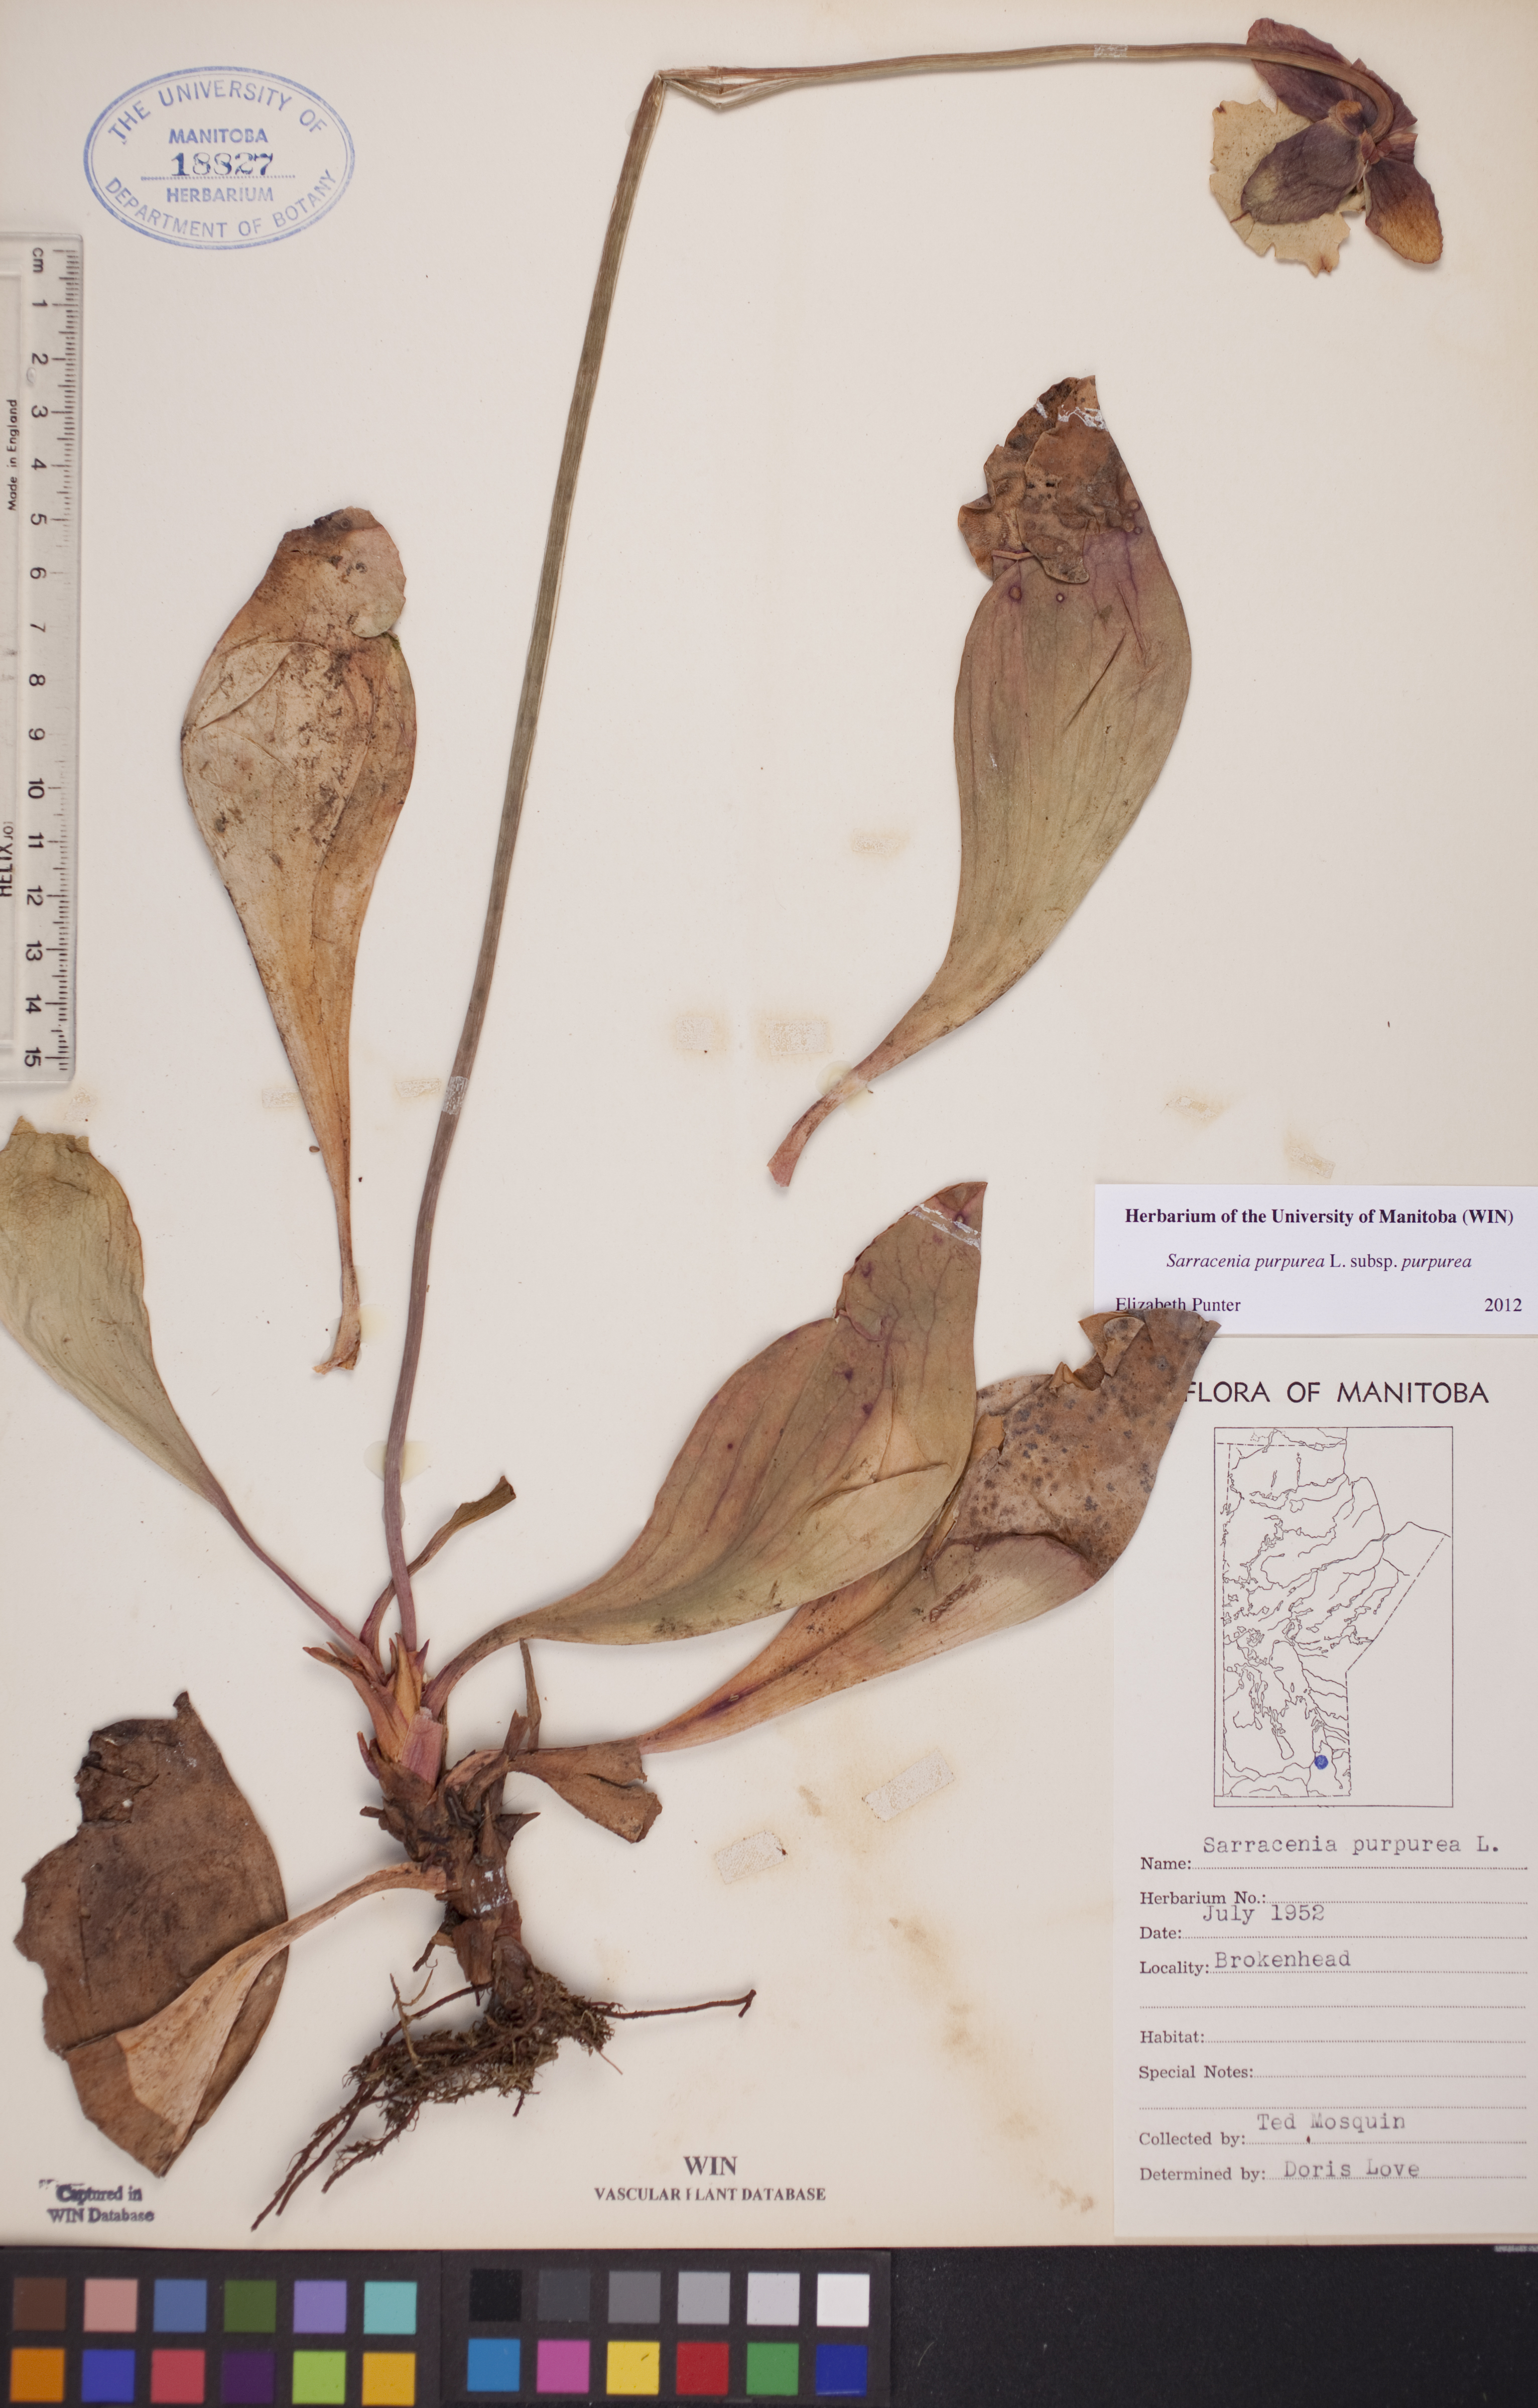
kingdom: Plantae
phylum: Tracheophyta
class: Magnoliopsida
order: Ericales
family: Sarraceniaceae
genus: Sarracenia
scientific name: Sarracenia purpurea
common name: Pitcherplant
